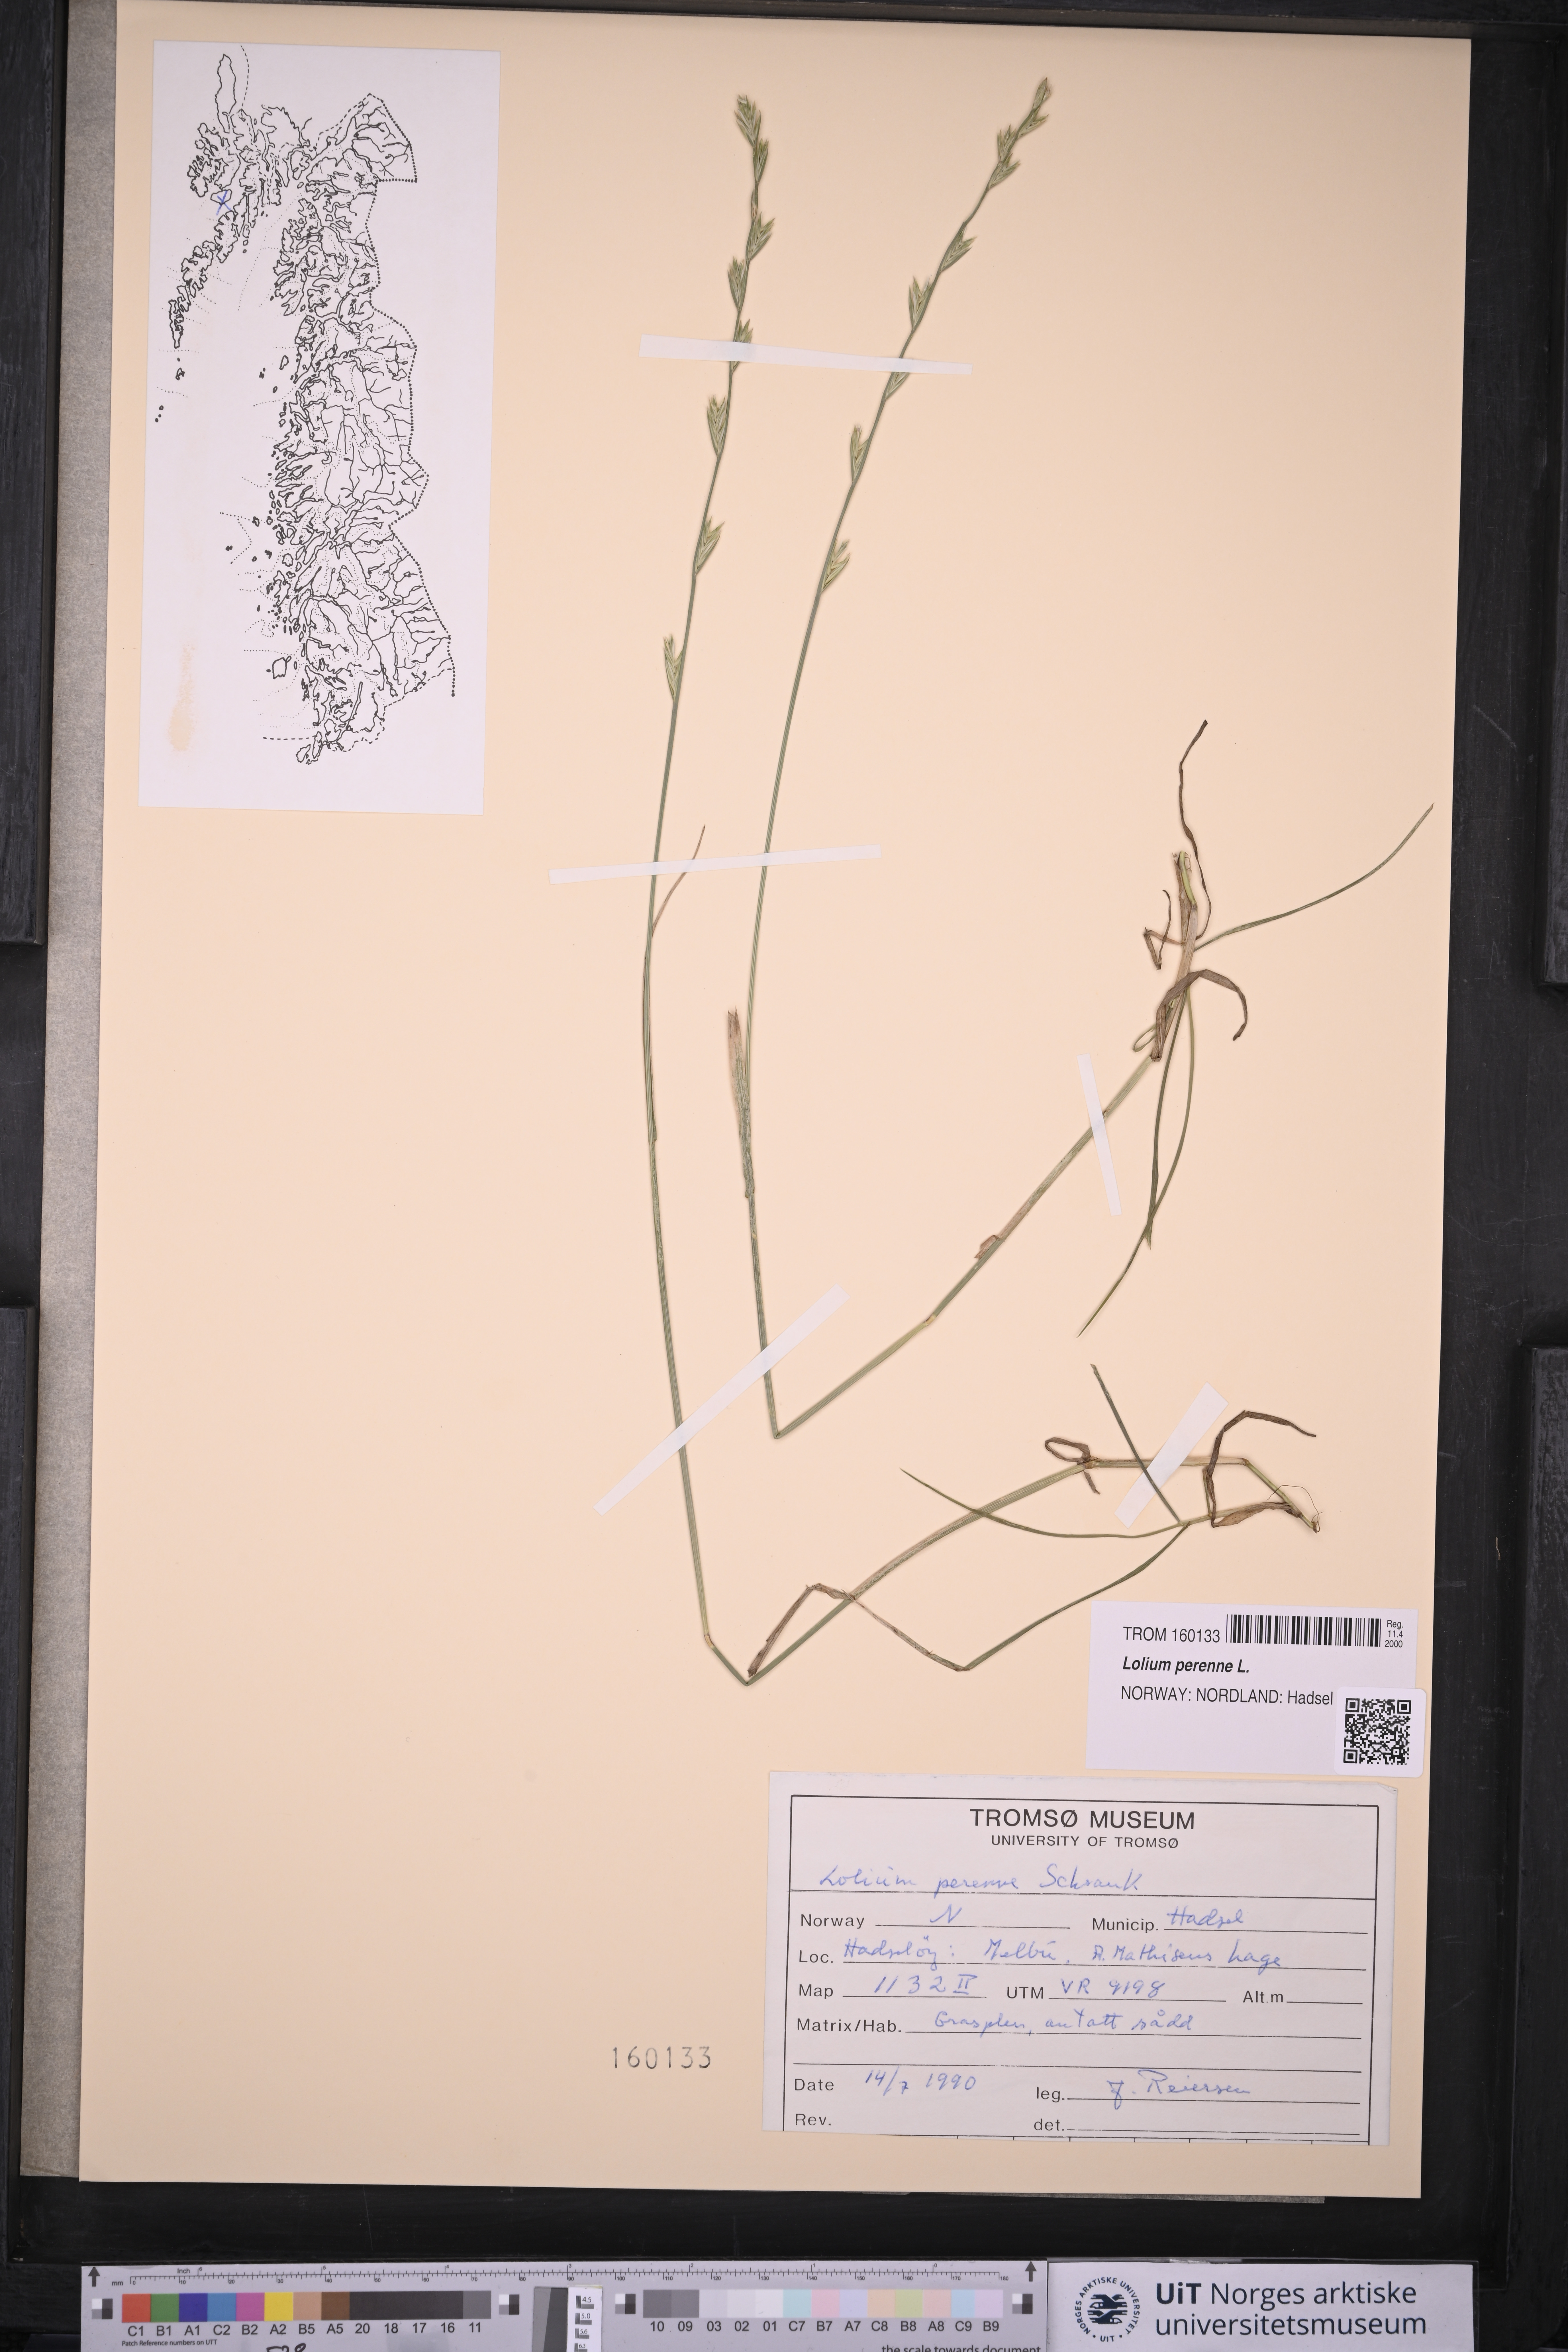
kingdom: Plantae
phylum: Tracheophyta
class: Liliopsida
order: Poales
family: Poaceae
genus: Lolium
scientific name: Lolium perenne
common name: Perennial ryegrass
